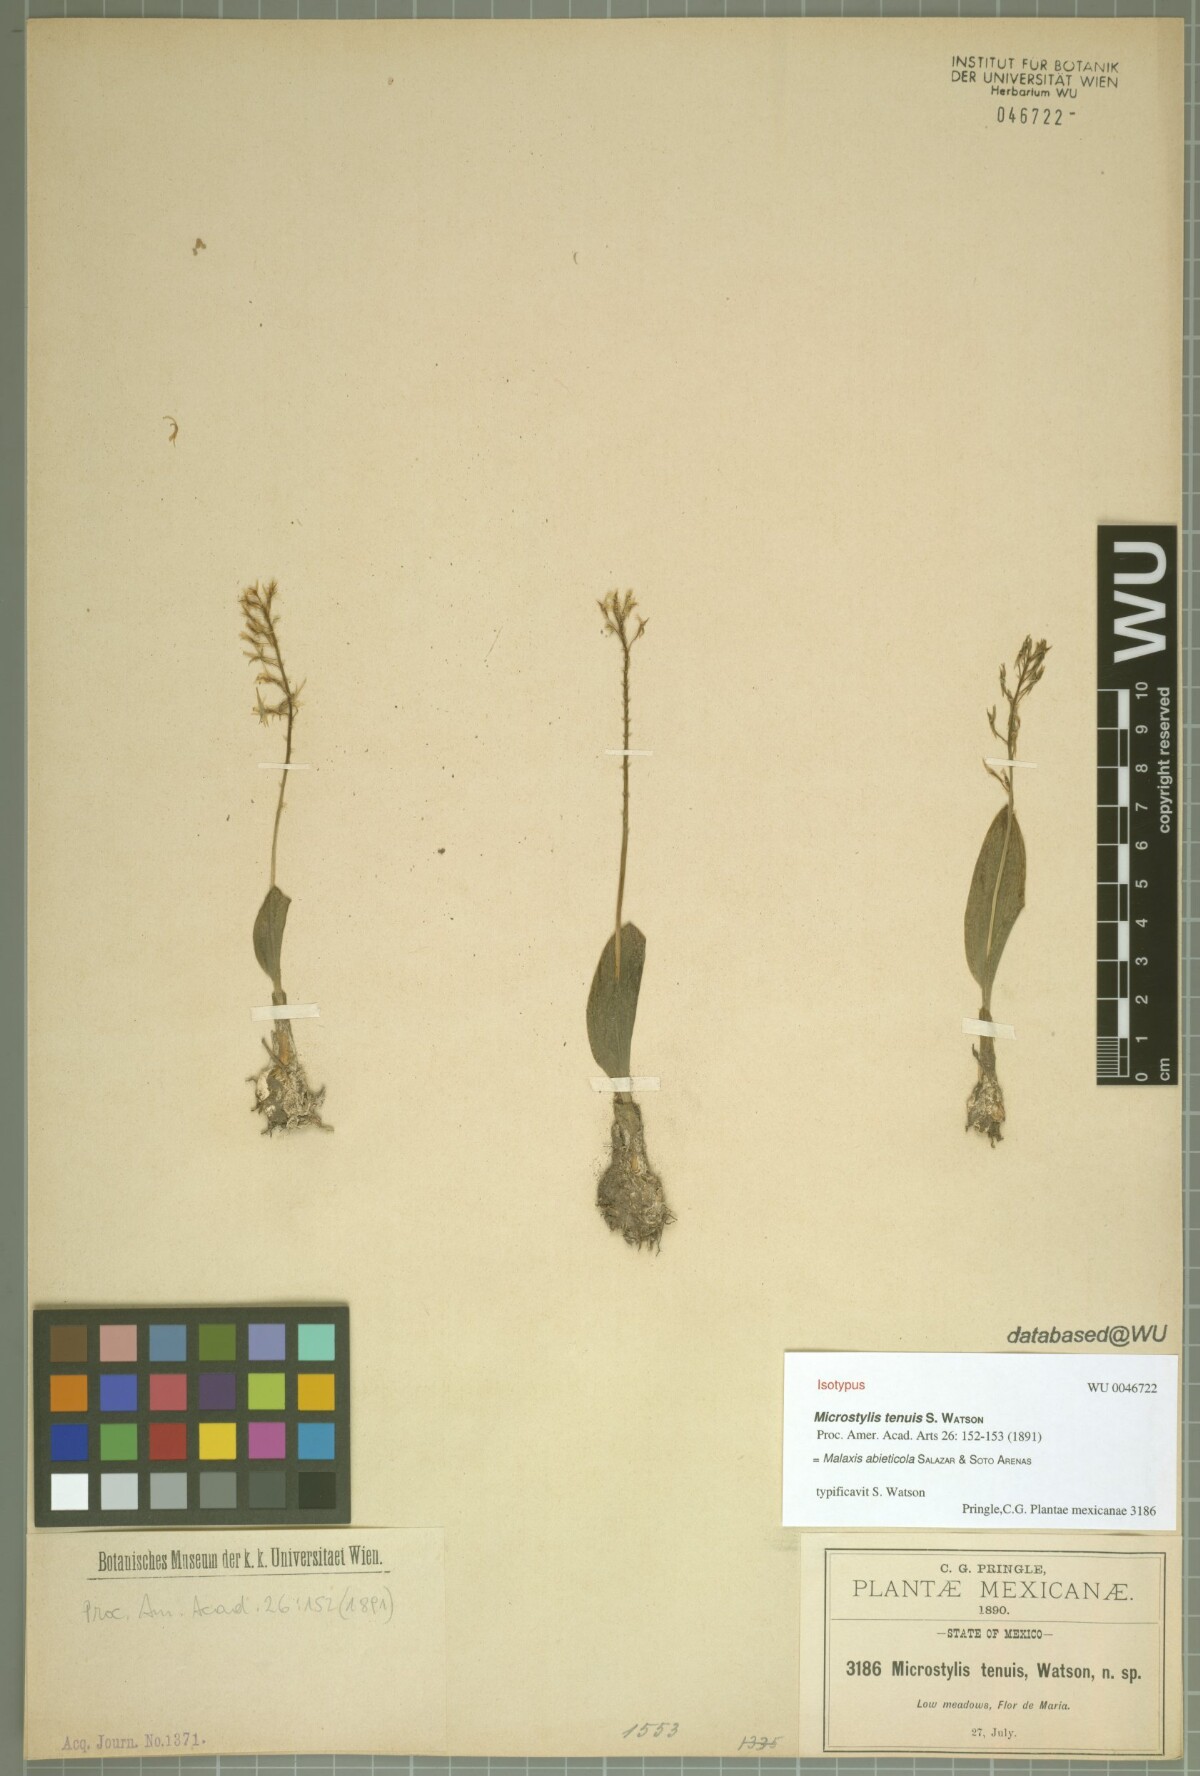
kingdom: Plantae
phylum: Tracheophyta
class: Liliopsida
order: Asparagales
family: Orchidaceae
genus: Malaxis
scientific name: Malaxis abieticola
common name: Arizona adder's-mouth orchid
